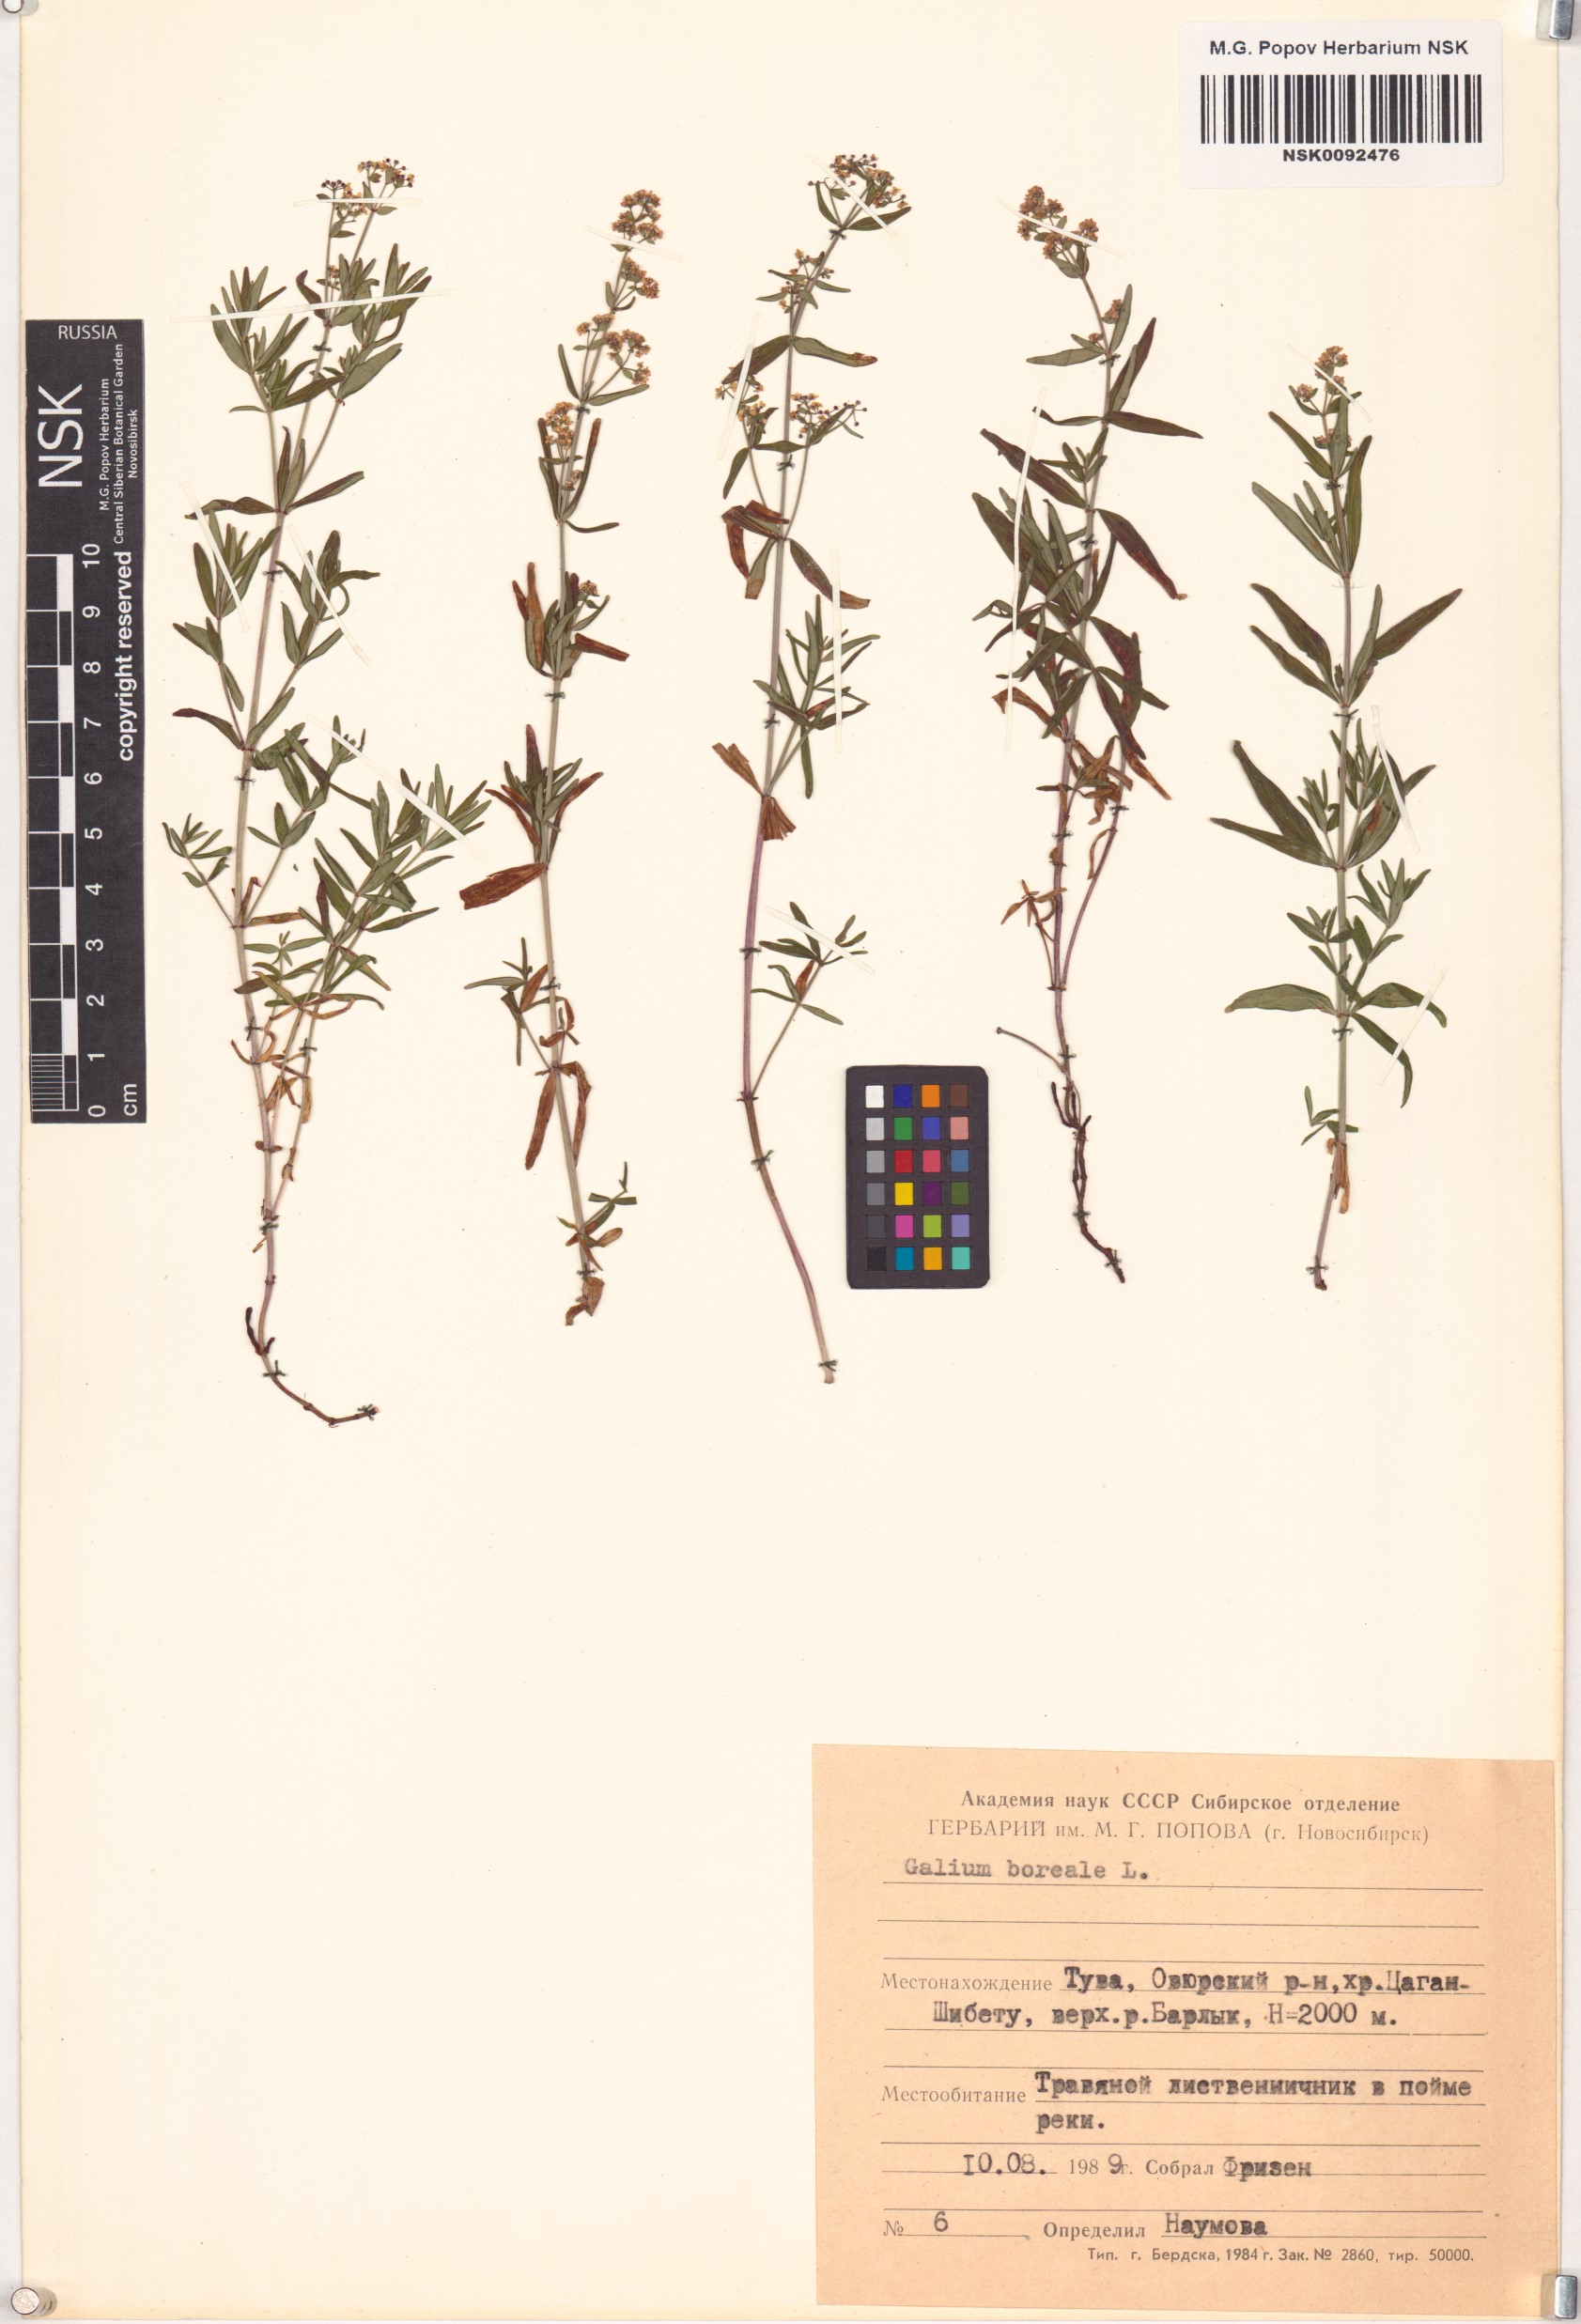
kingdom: Plantae
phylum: Tracheophyta
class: Magnoliopsida
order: Gentianales
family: Rubiaceae
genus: Galium
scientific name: Galium boreale
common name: Northern bedstraw
